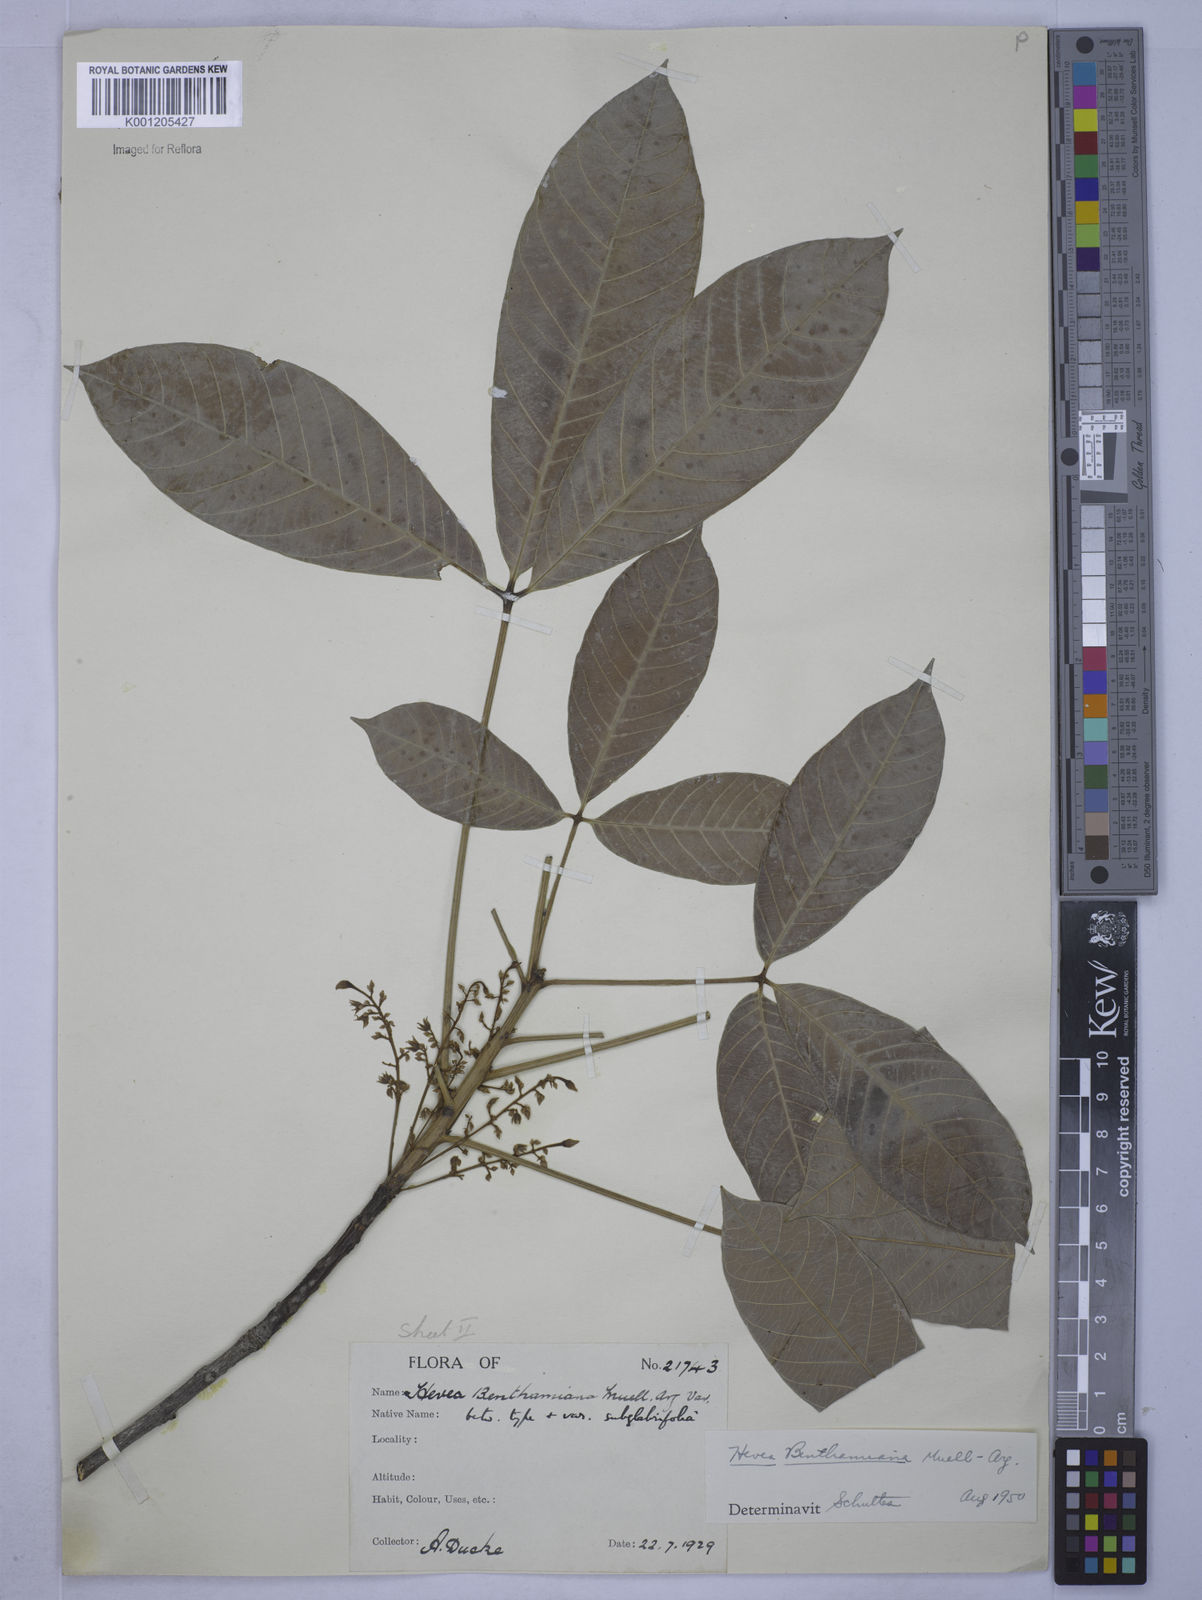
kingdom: Plantae
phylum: Tracheophyta
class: Magnoliopsida
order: Malpighiales
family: Euphorbiaceae
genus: Hevea
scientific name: Hevea
